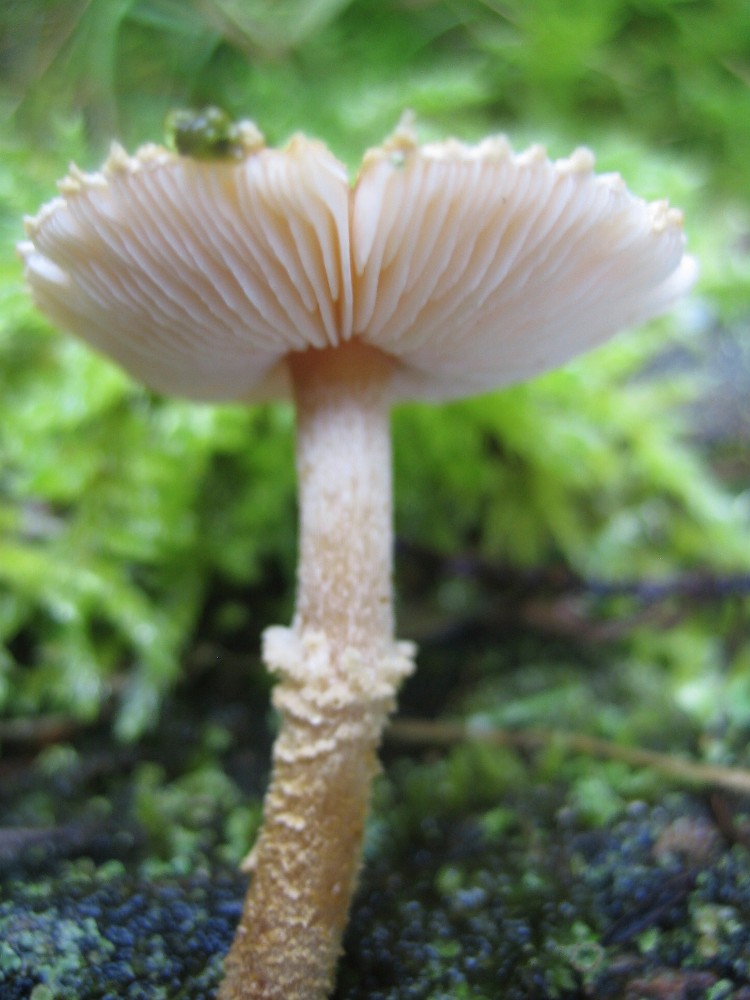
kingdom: Fungi
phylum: Basidiomycota
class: Agaricomycetes
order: Agaricales
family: Tricholomataceae
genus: Cystoderma
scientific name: Cystoderma amianthinum
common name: okkergul grynhat
